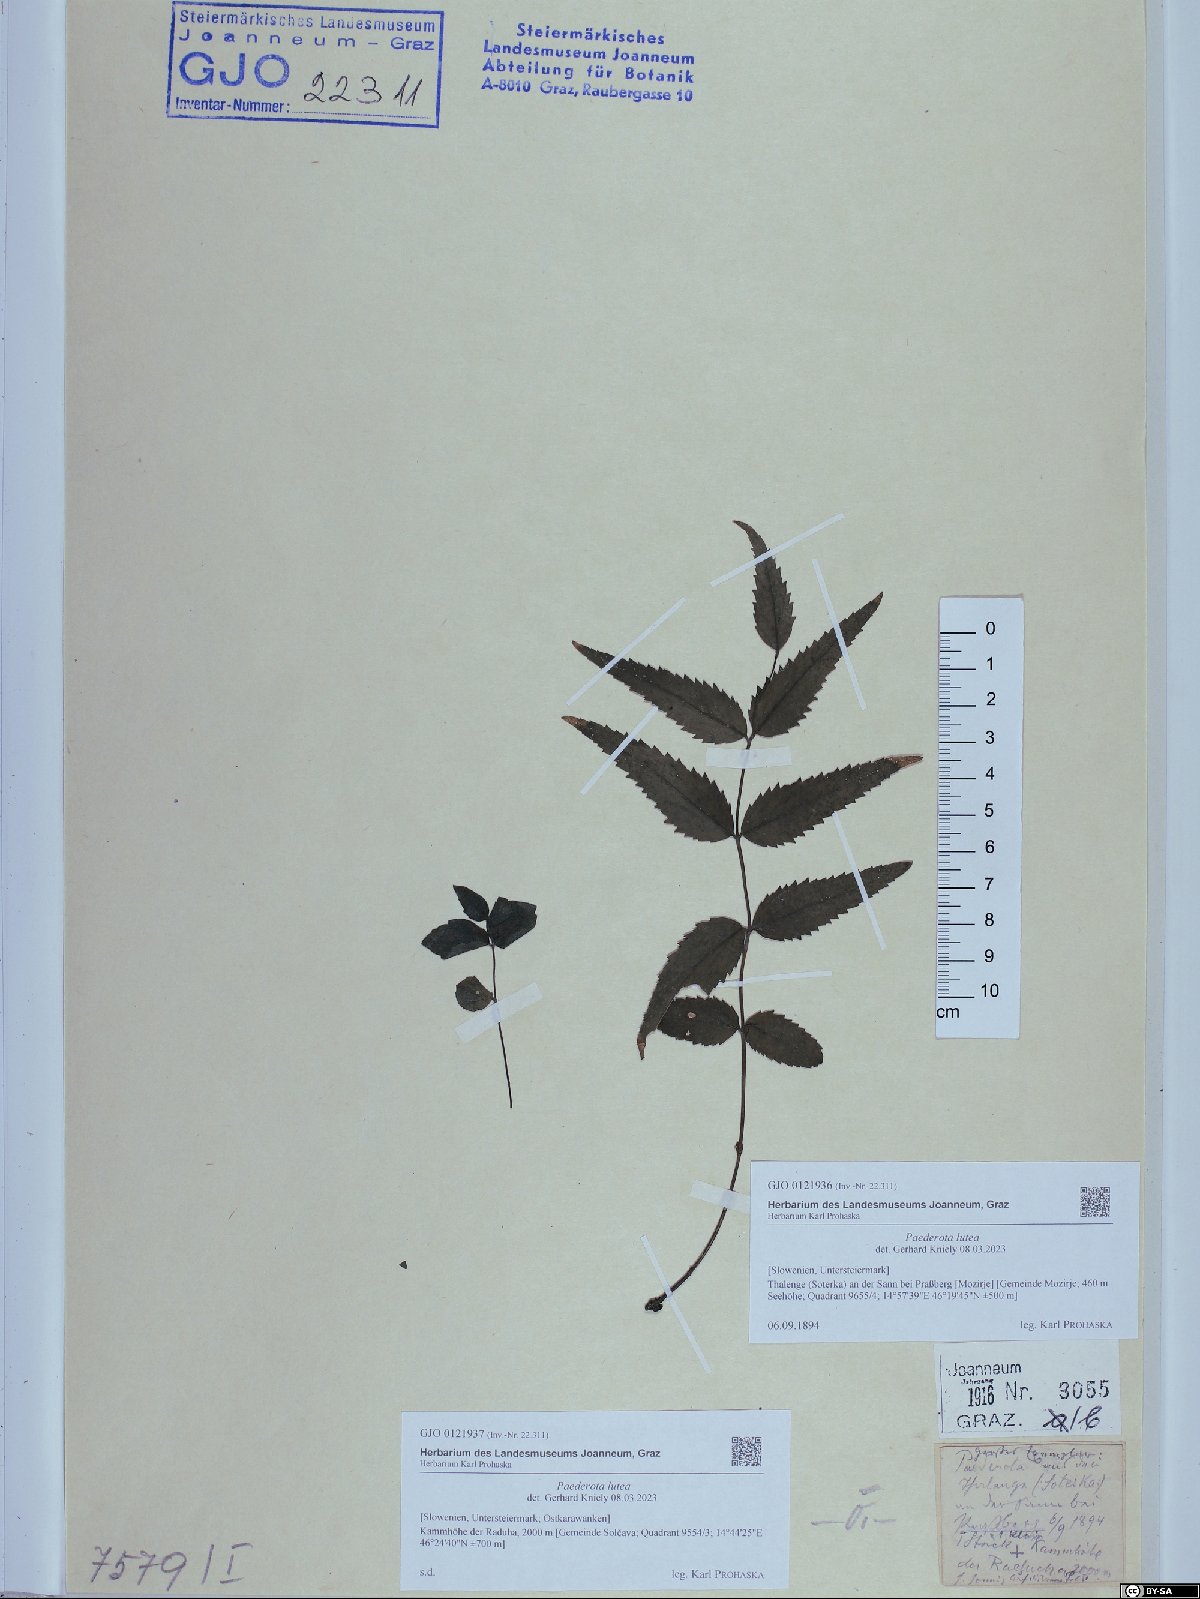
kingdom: Plantae
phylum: Tracheophyta
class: Magnoliopsida
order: Lamiales
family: Plantaginaceae
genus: Paederota
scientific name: Paederota lutea
